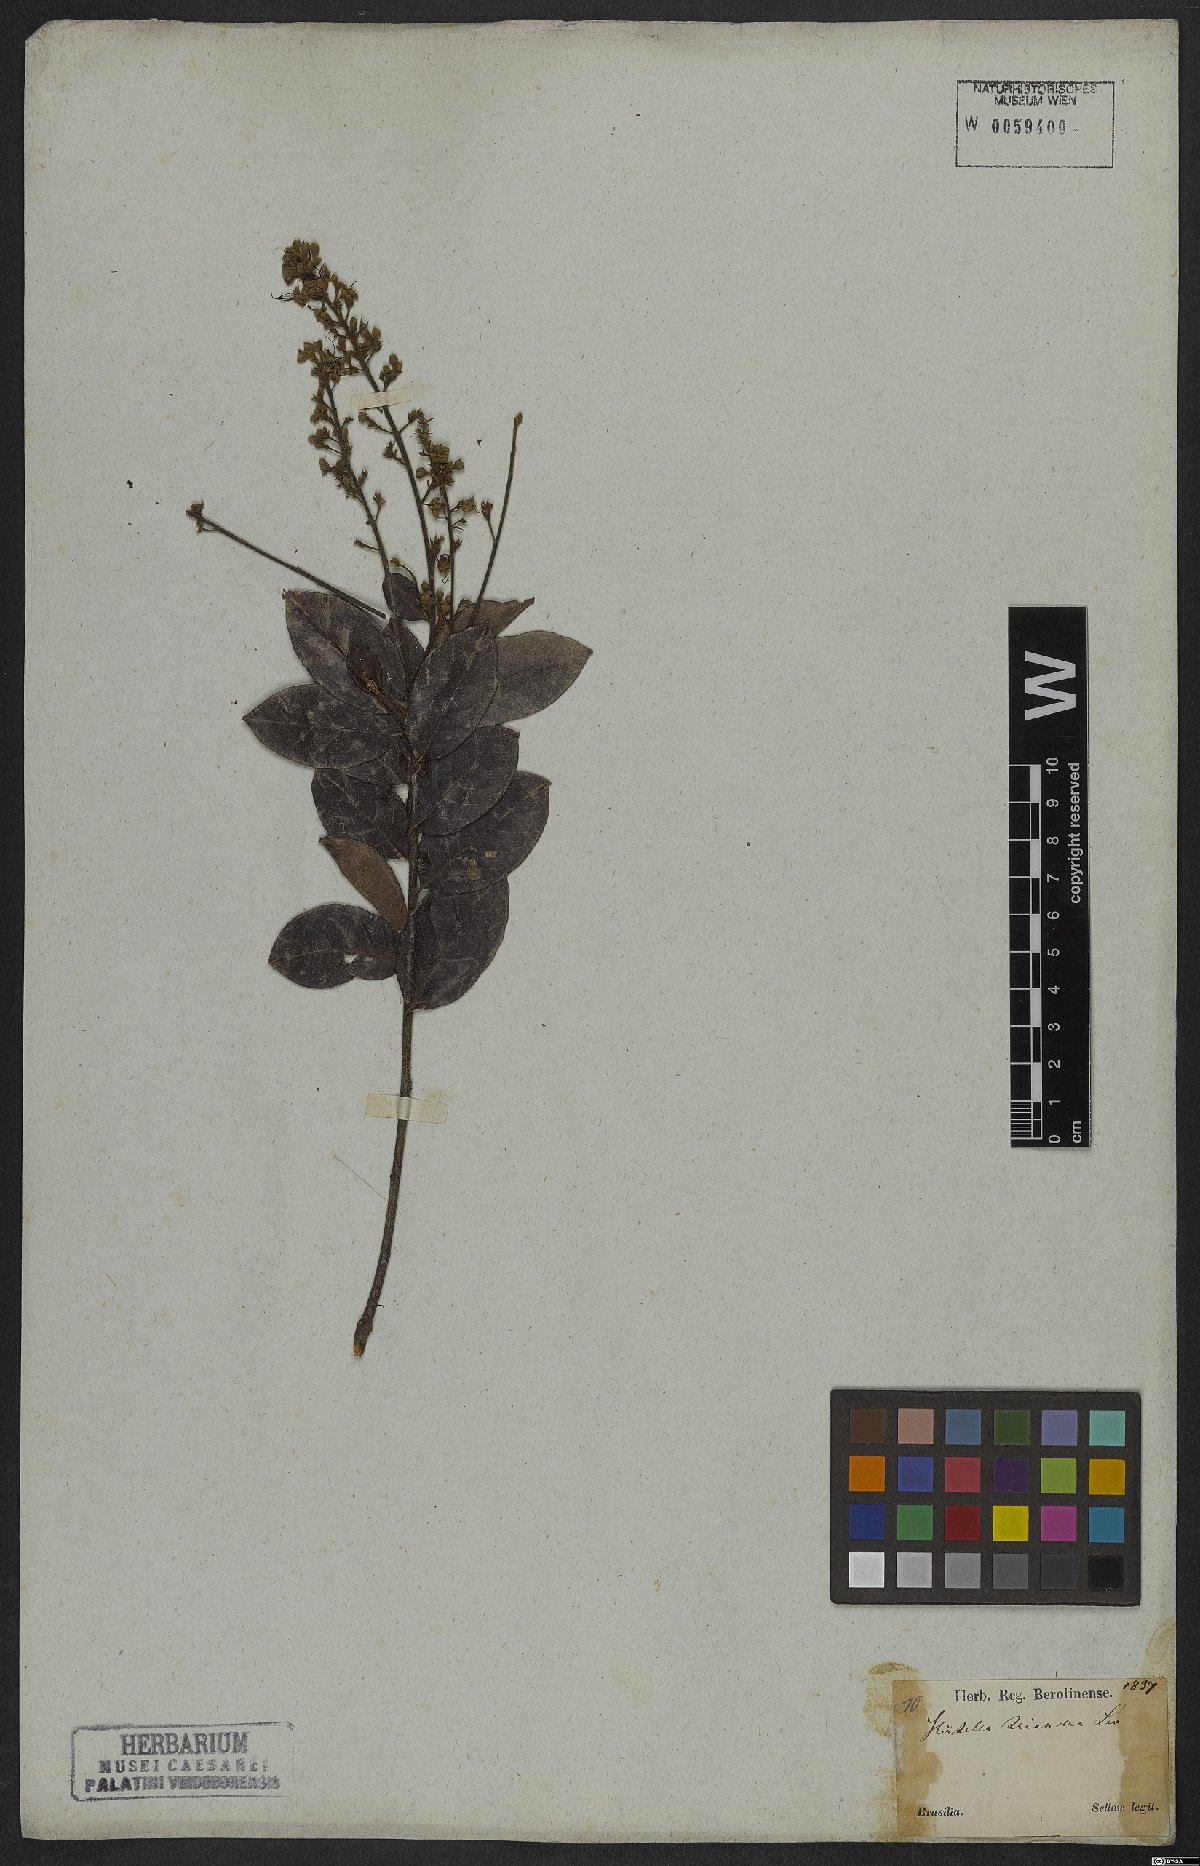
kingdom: Plantae
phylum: Tracheophyta
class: Magnoliopsida
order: Malpighiales
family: Chrysobalanaceae
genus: Hirtella
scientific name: Hirtella triandra
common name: Hairy plum
